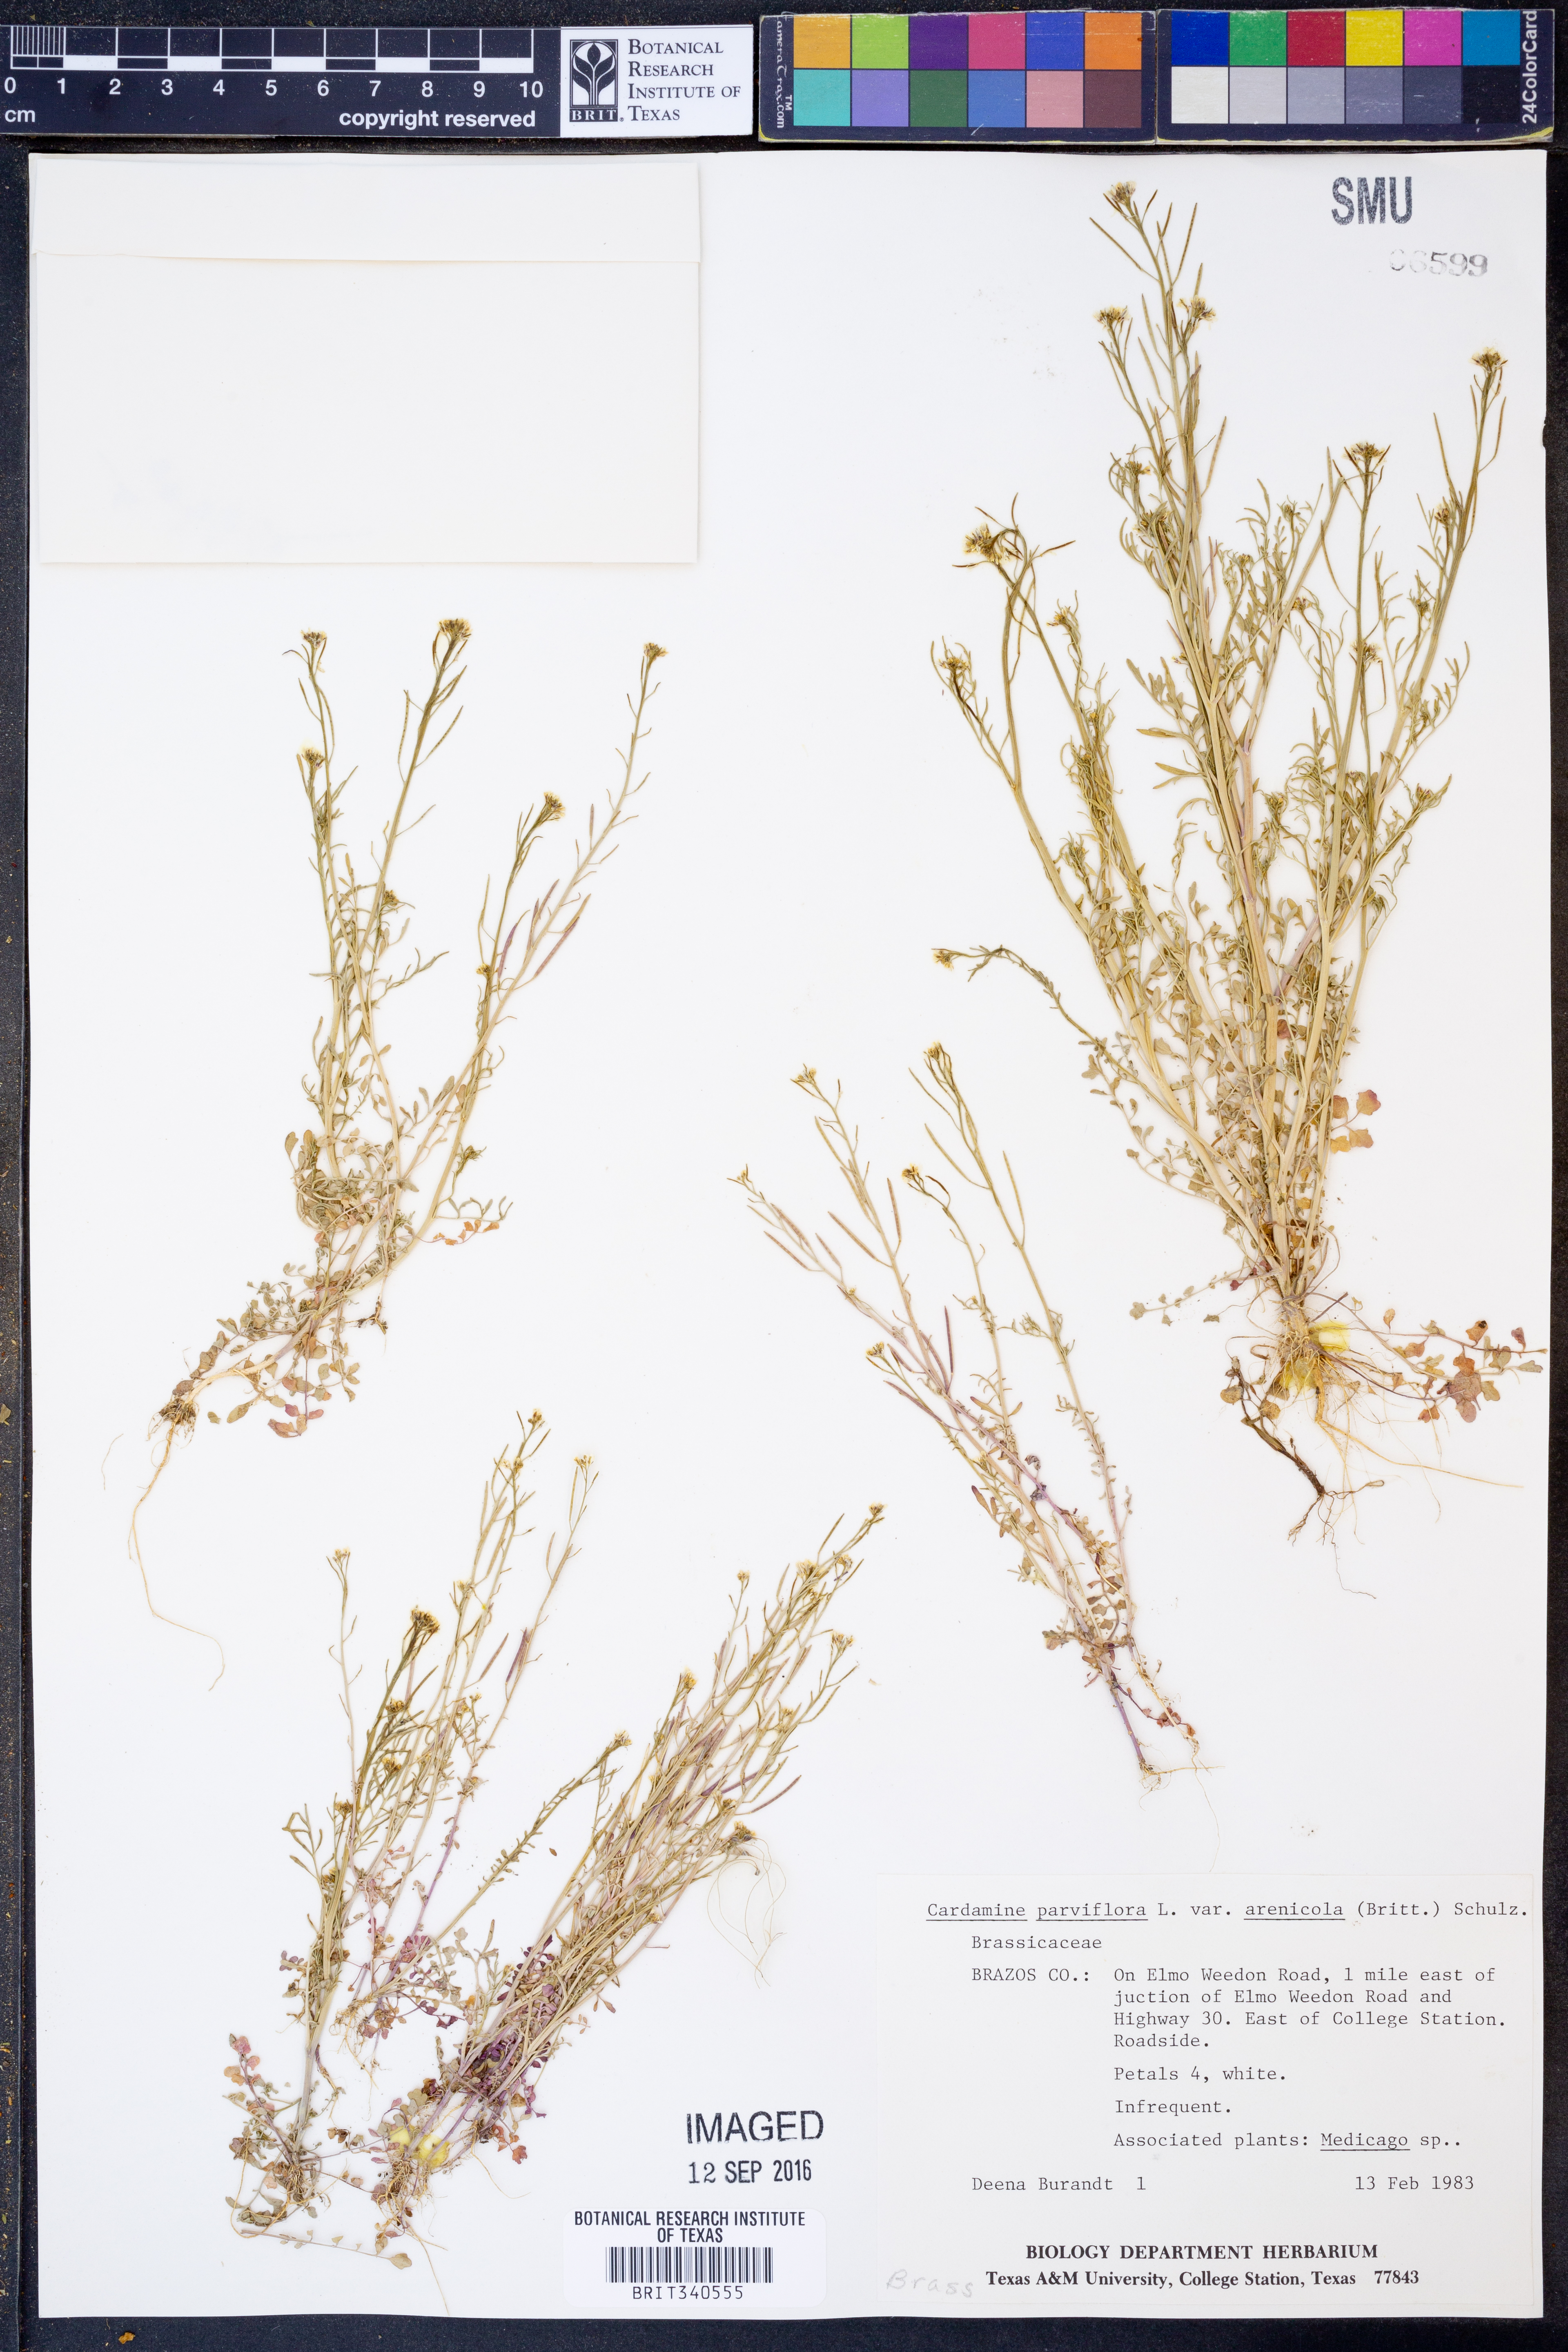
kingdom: Plantae
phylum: Tracheophyta
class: Magnoliopsida
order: Brassicales
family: Brassicaceae
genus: Cardamine
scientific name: Cardamine parviflora
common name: Sand bittercress
